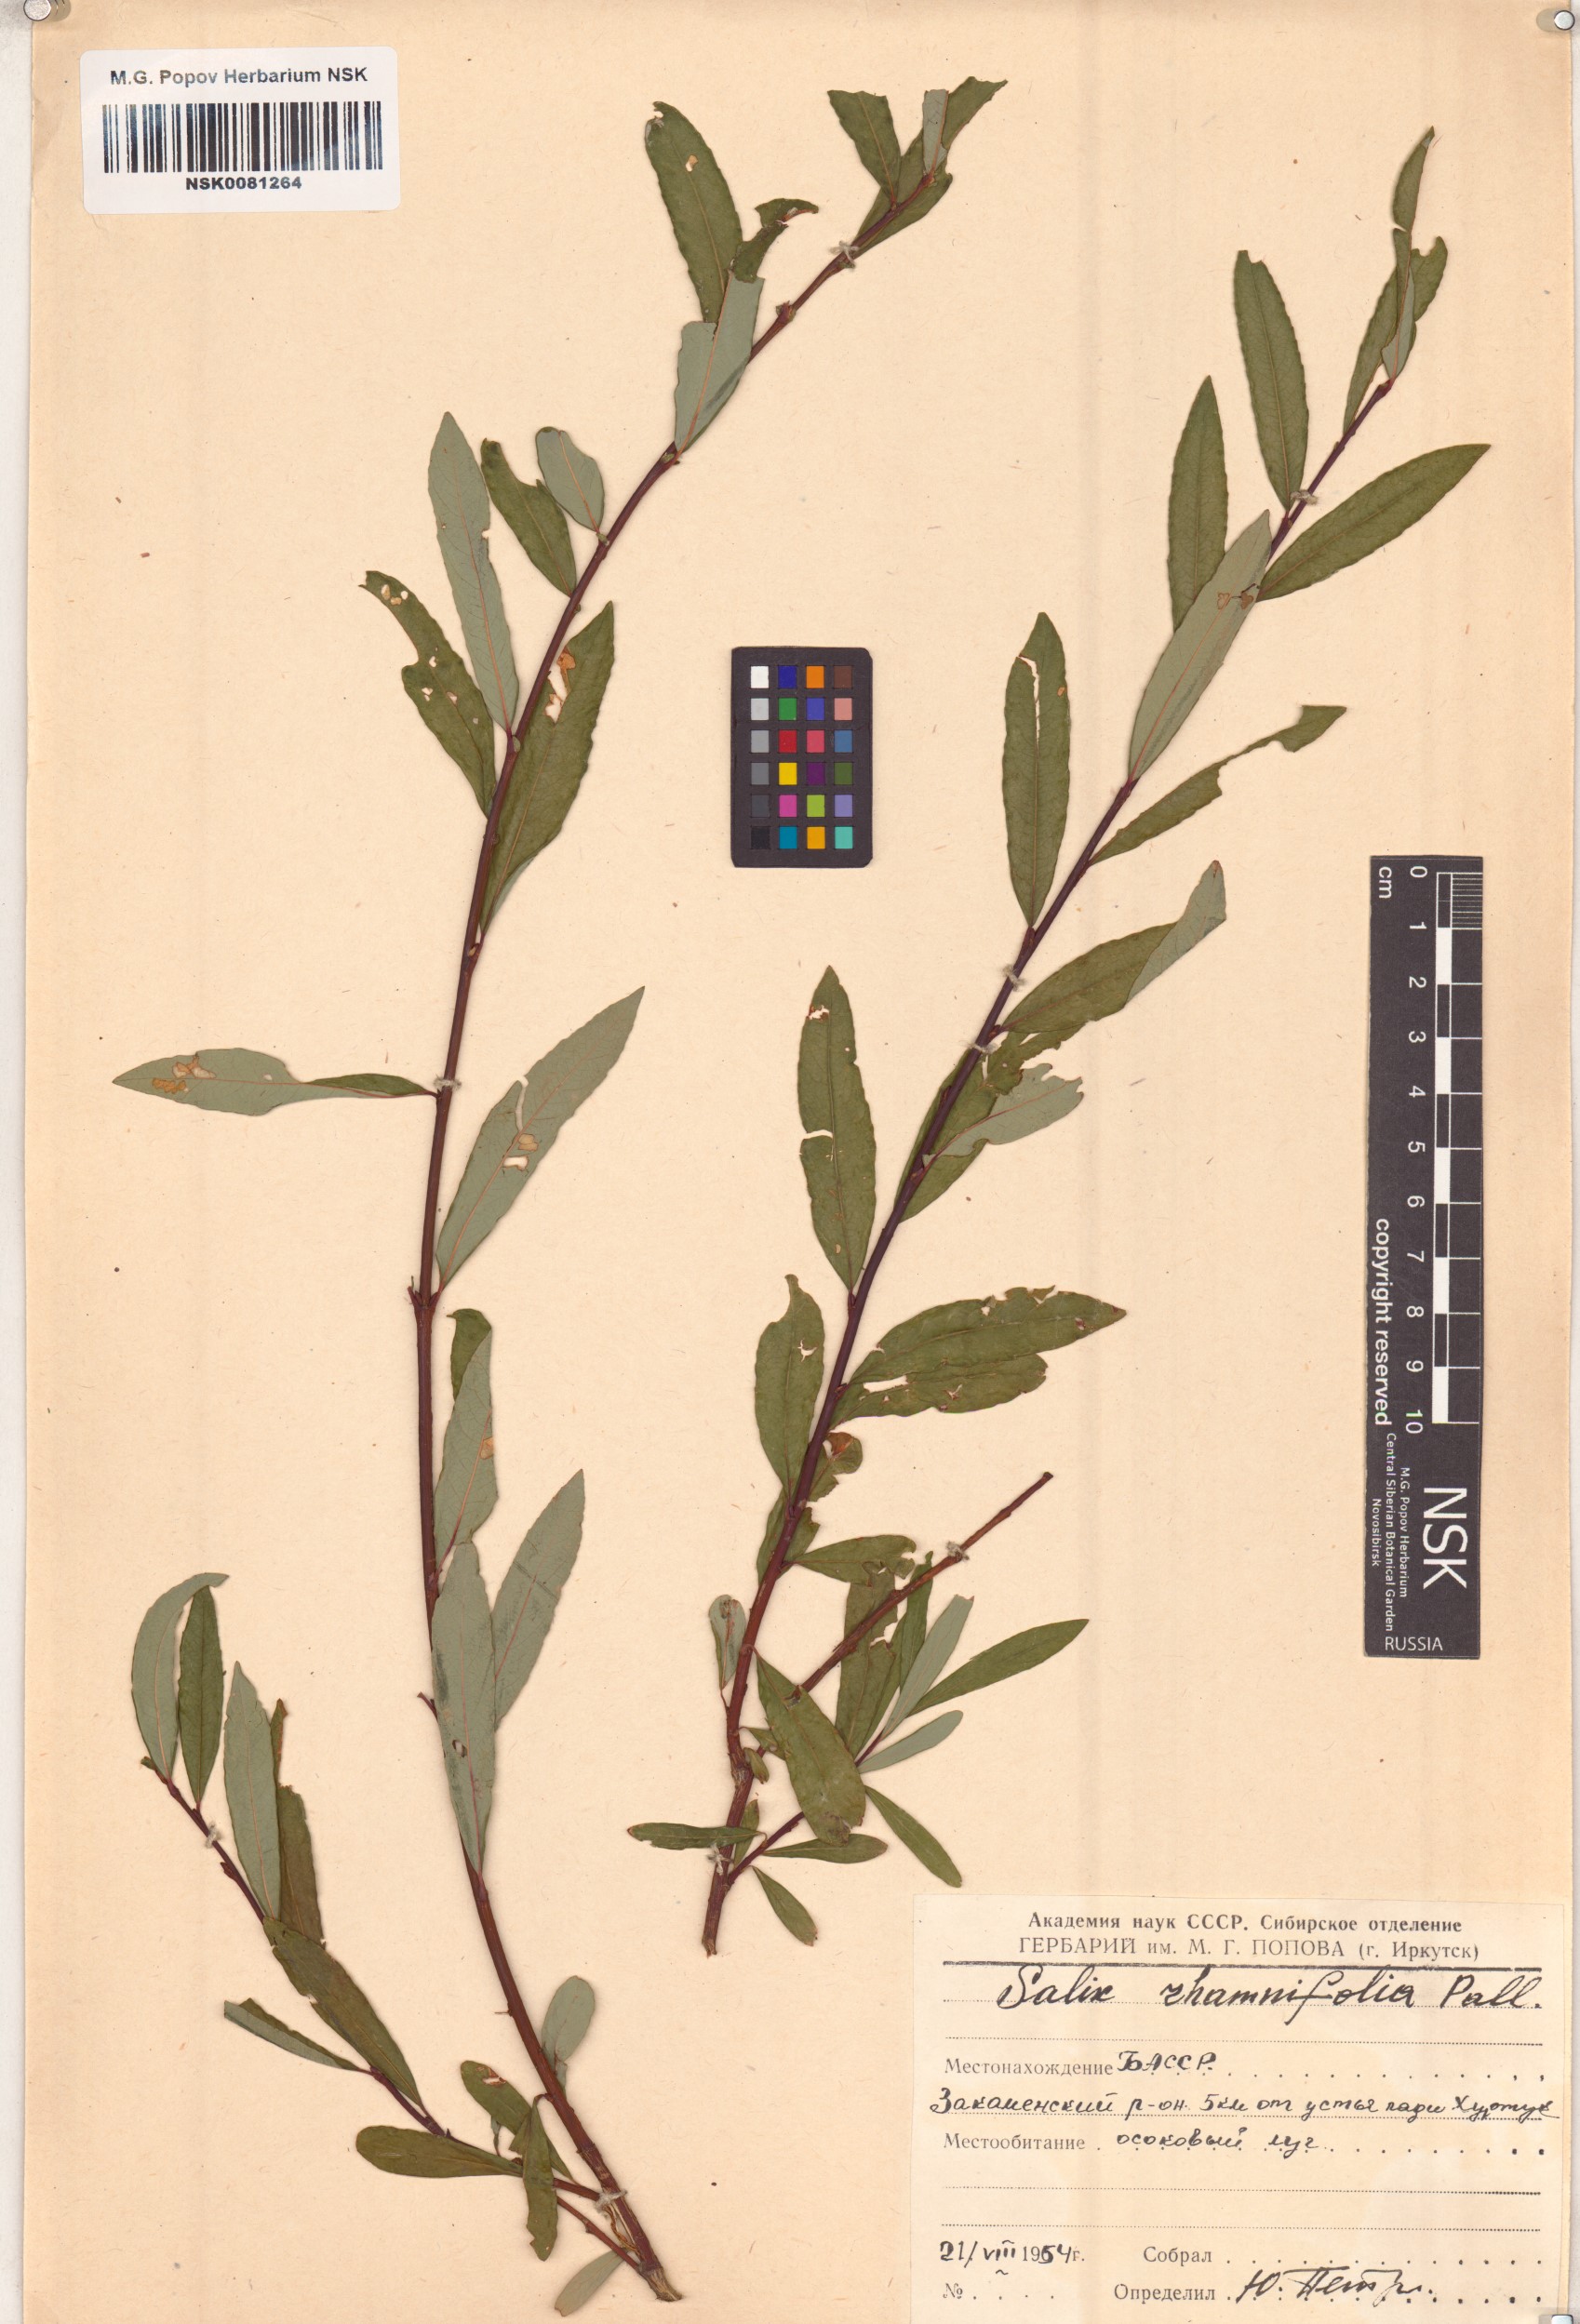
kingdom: Plantae
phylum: Tracheophyta
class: Magnoliopsida
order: Malpighiales
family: Salicaceae
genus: Salix
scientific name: Salix rhamnifolia
